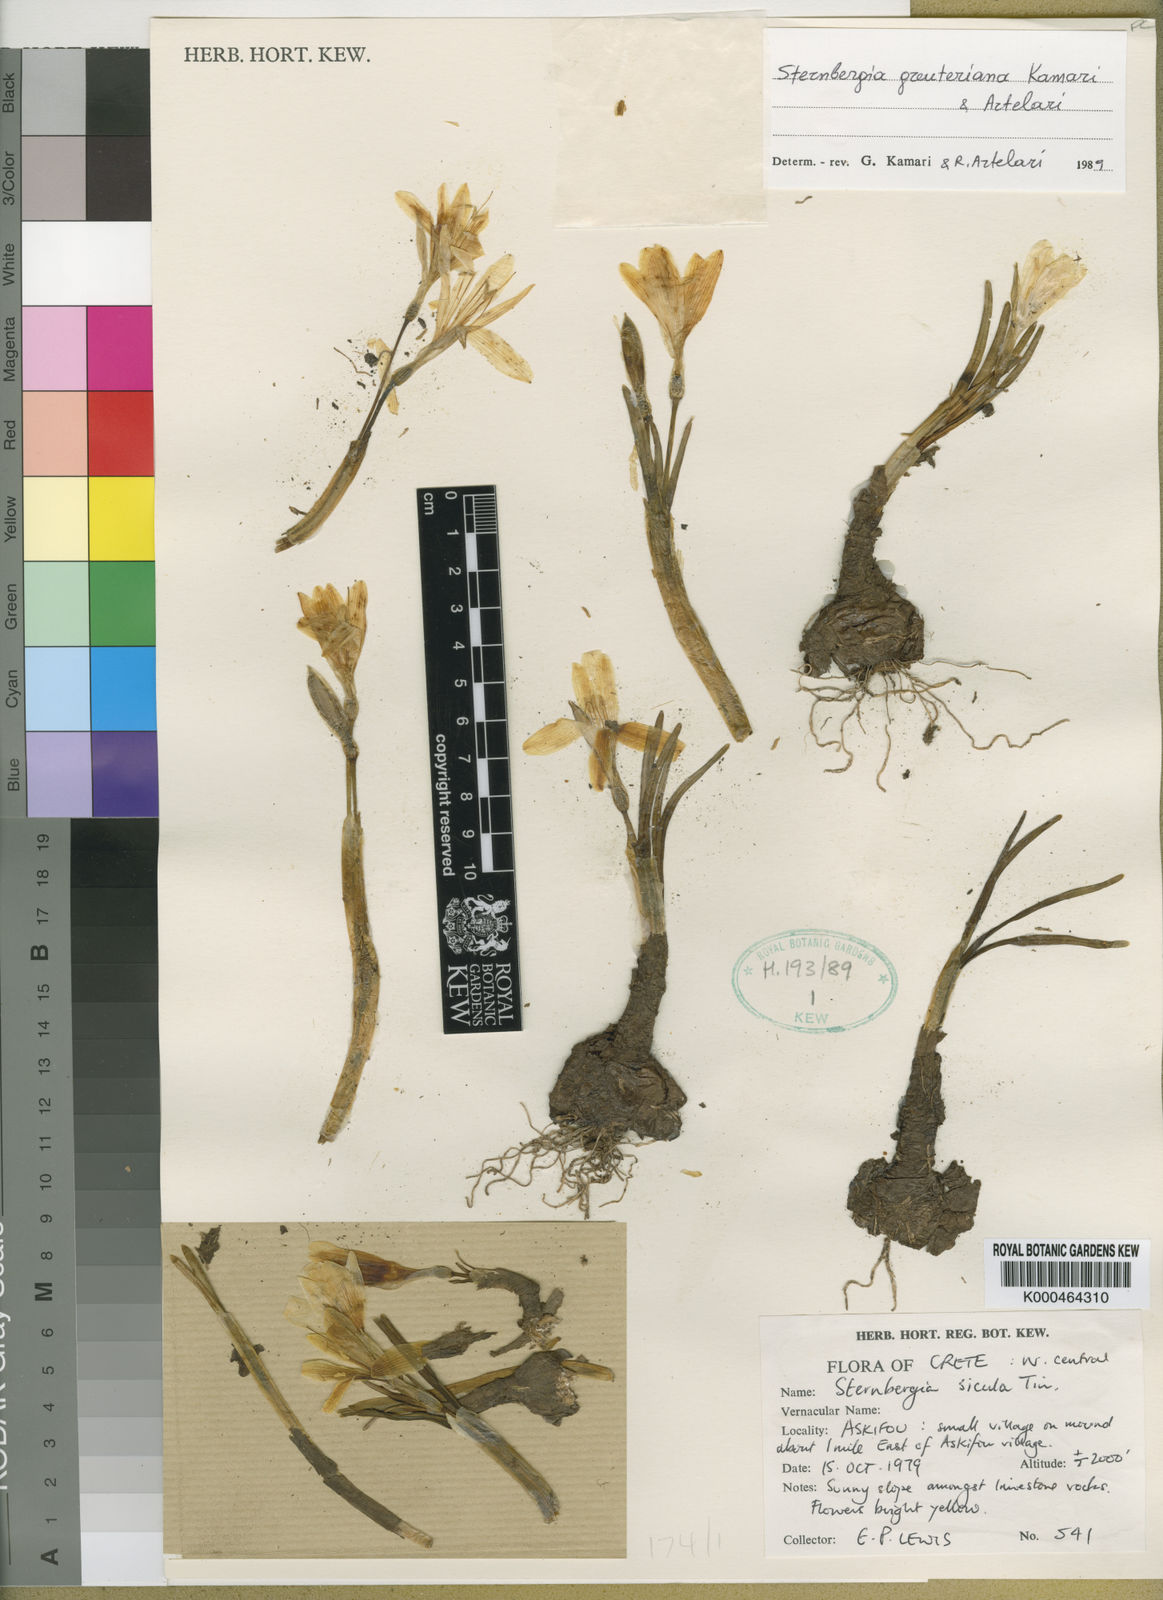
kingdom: Plantae
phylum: Tracheophyta
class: Liliopsida
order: Asparagales
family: Amaryllidaceae
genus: Sternbergia
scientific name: Sternbergia lutea
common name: Winter daffodil
